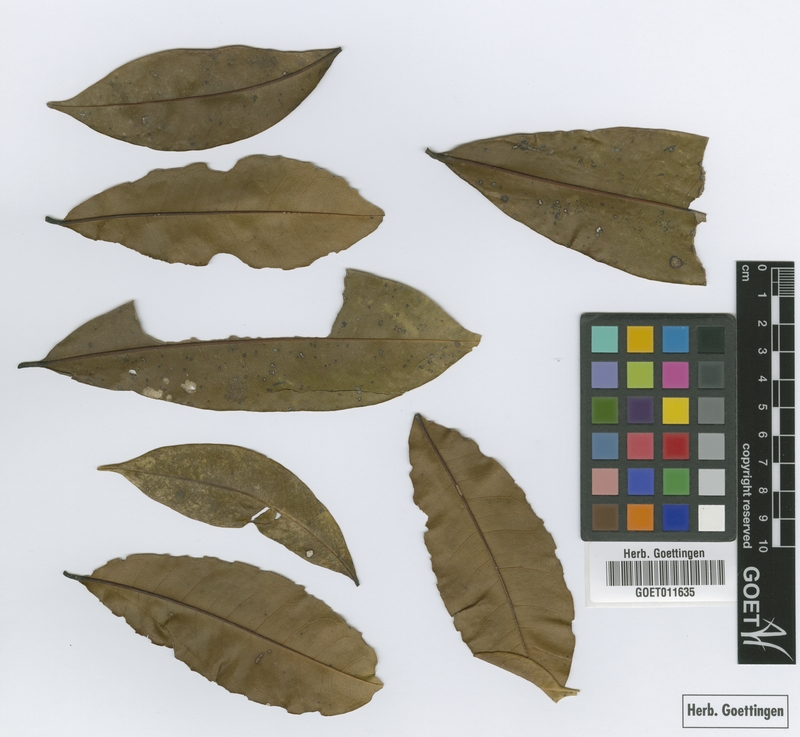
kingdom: Plantae
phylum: Tracheophyta
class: Magnoliopsida
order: Myrtales
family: Vochysiaceae
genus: Vochysia
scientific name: Vochysia tetraphylla
